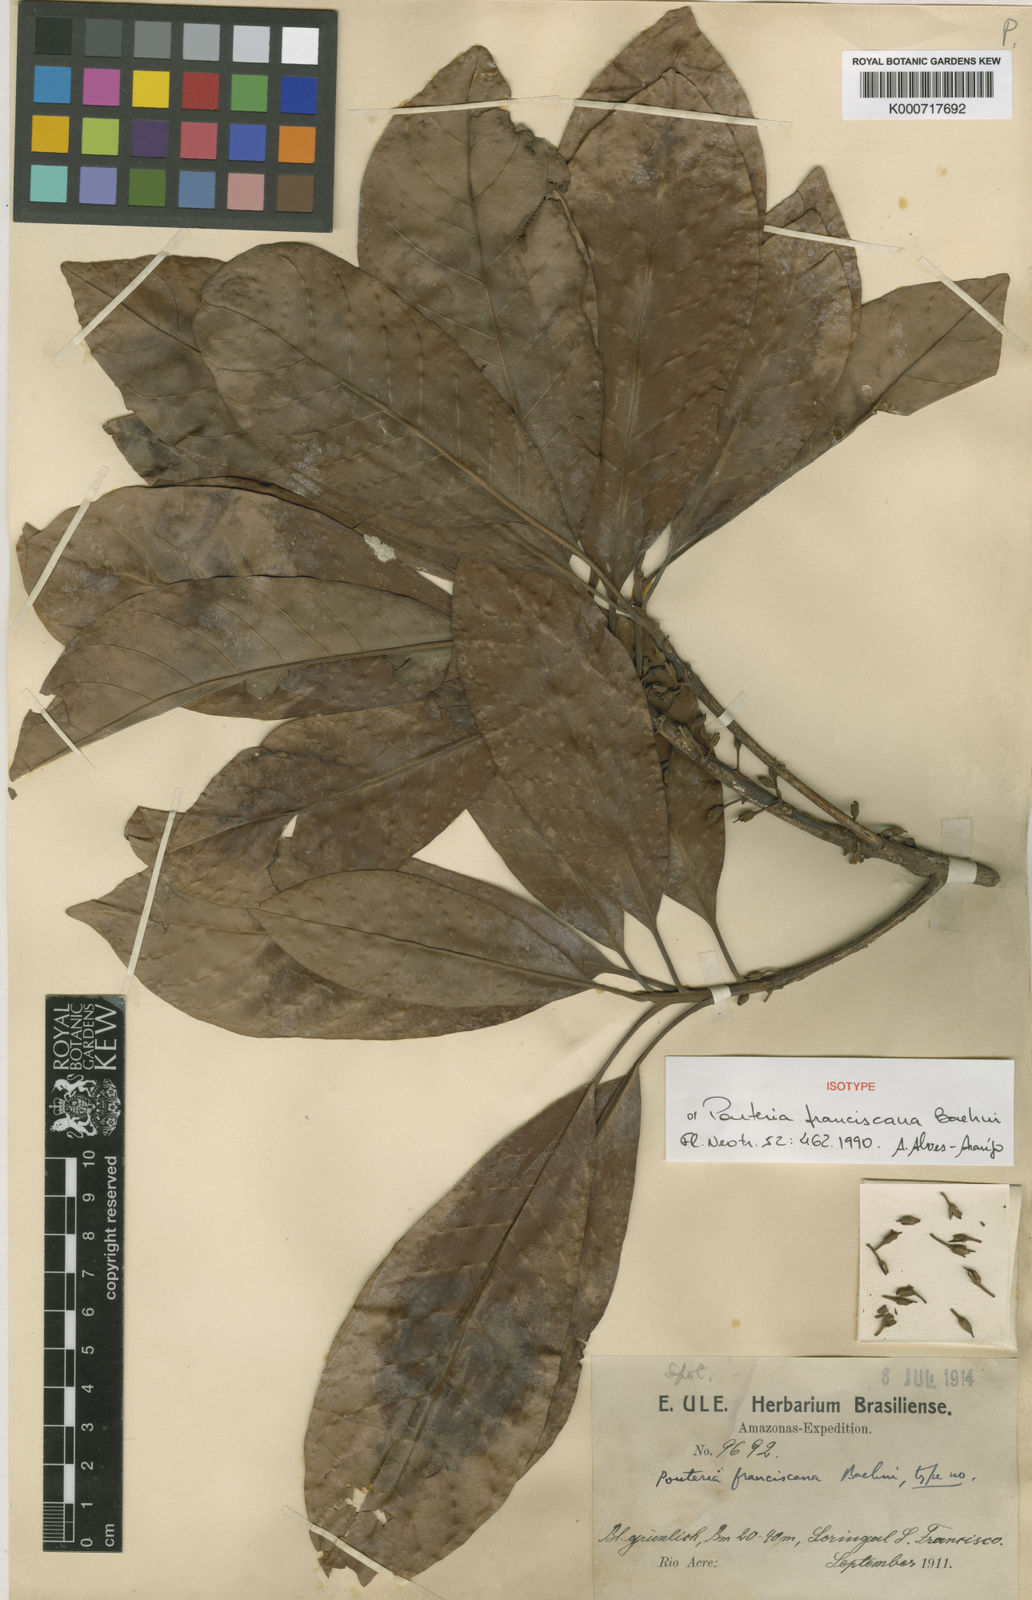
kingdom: Plantae
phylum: Tracheophyta
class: Magnoliopsida
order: Ericales
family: Sapotaceae
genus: Pouteria
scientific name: Pouteria franciscana
